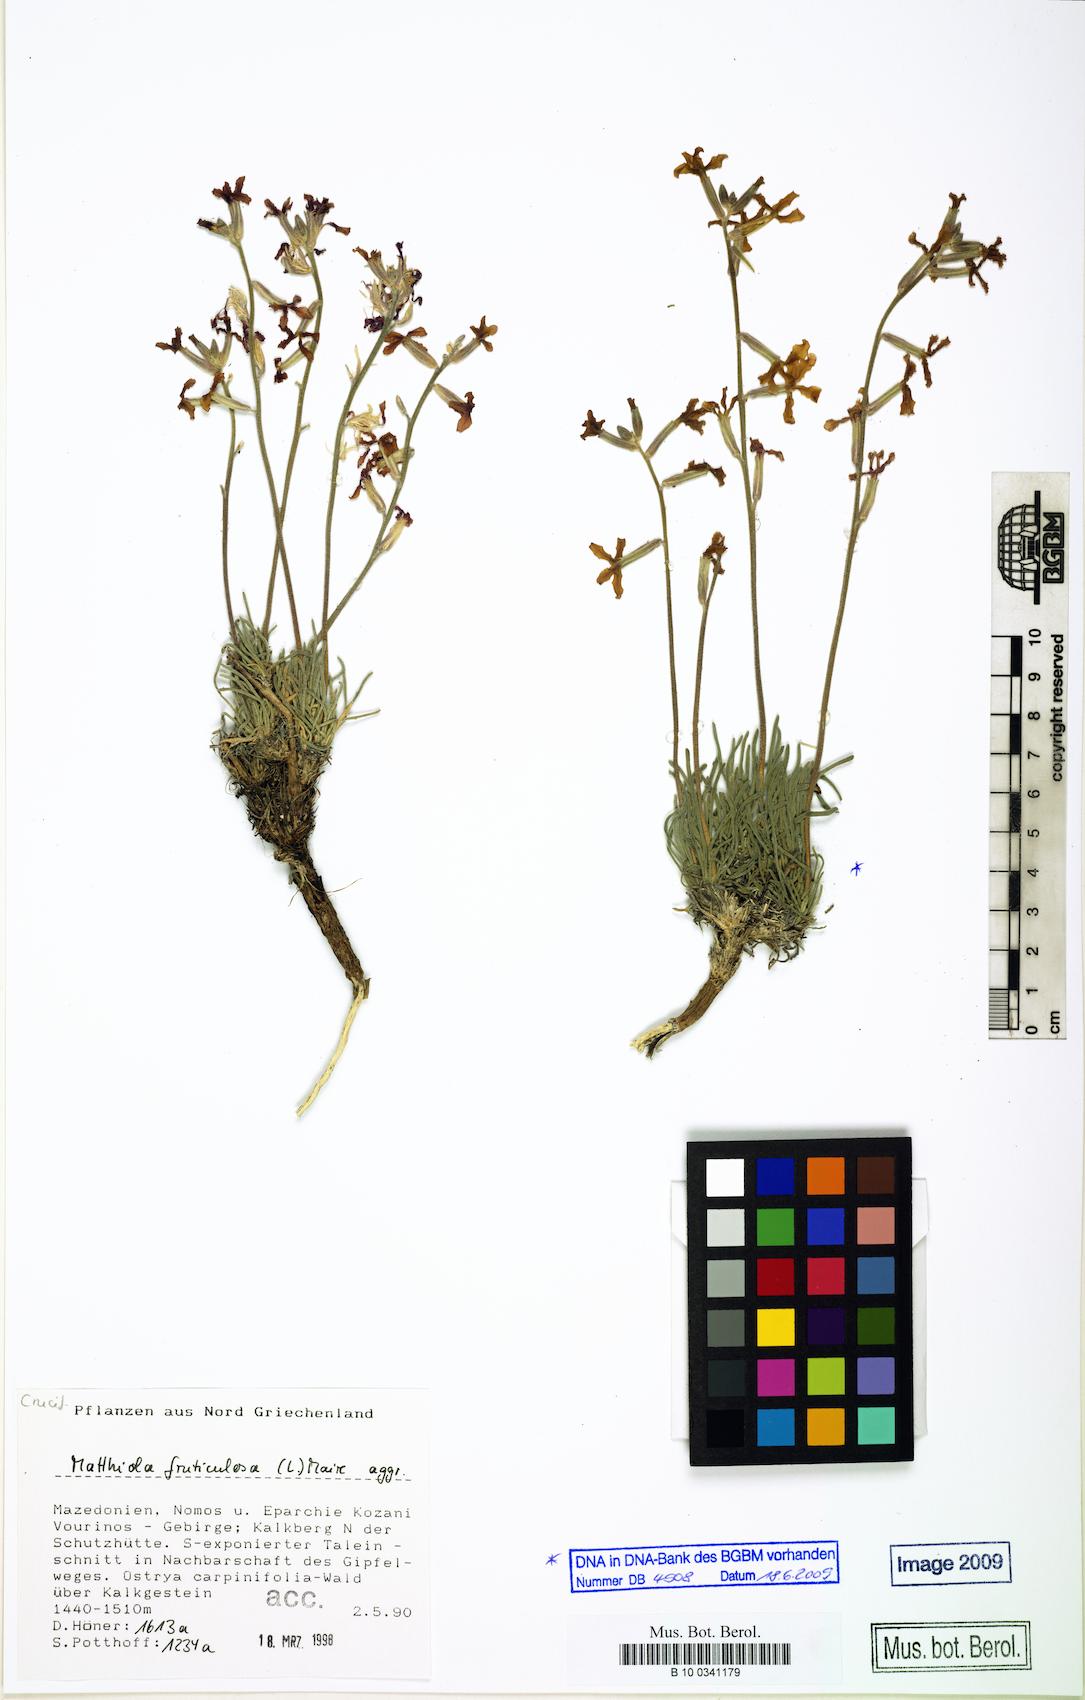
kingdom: Plantae
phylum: Tracheophyta
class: Magnoliopsida
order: Brassicales
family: Brassicaceae
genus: Matthiola
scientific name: Matthiola fruticulosa
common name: Sad stock
